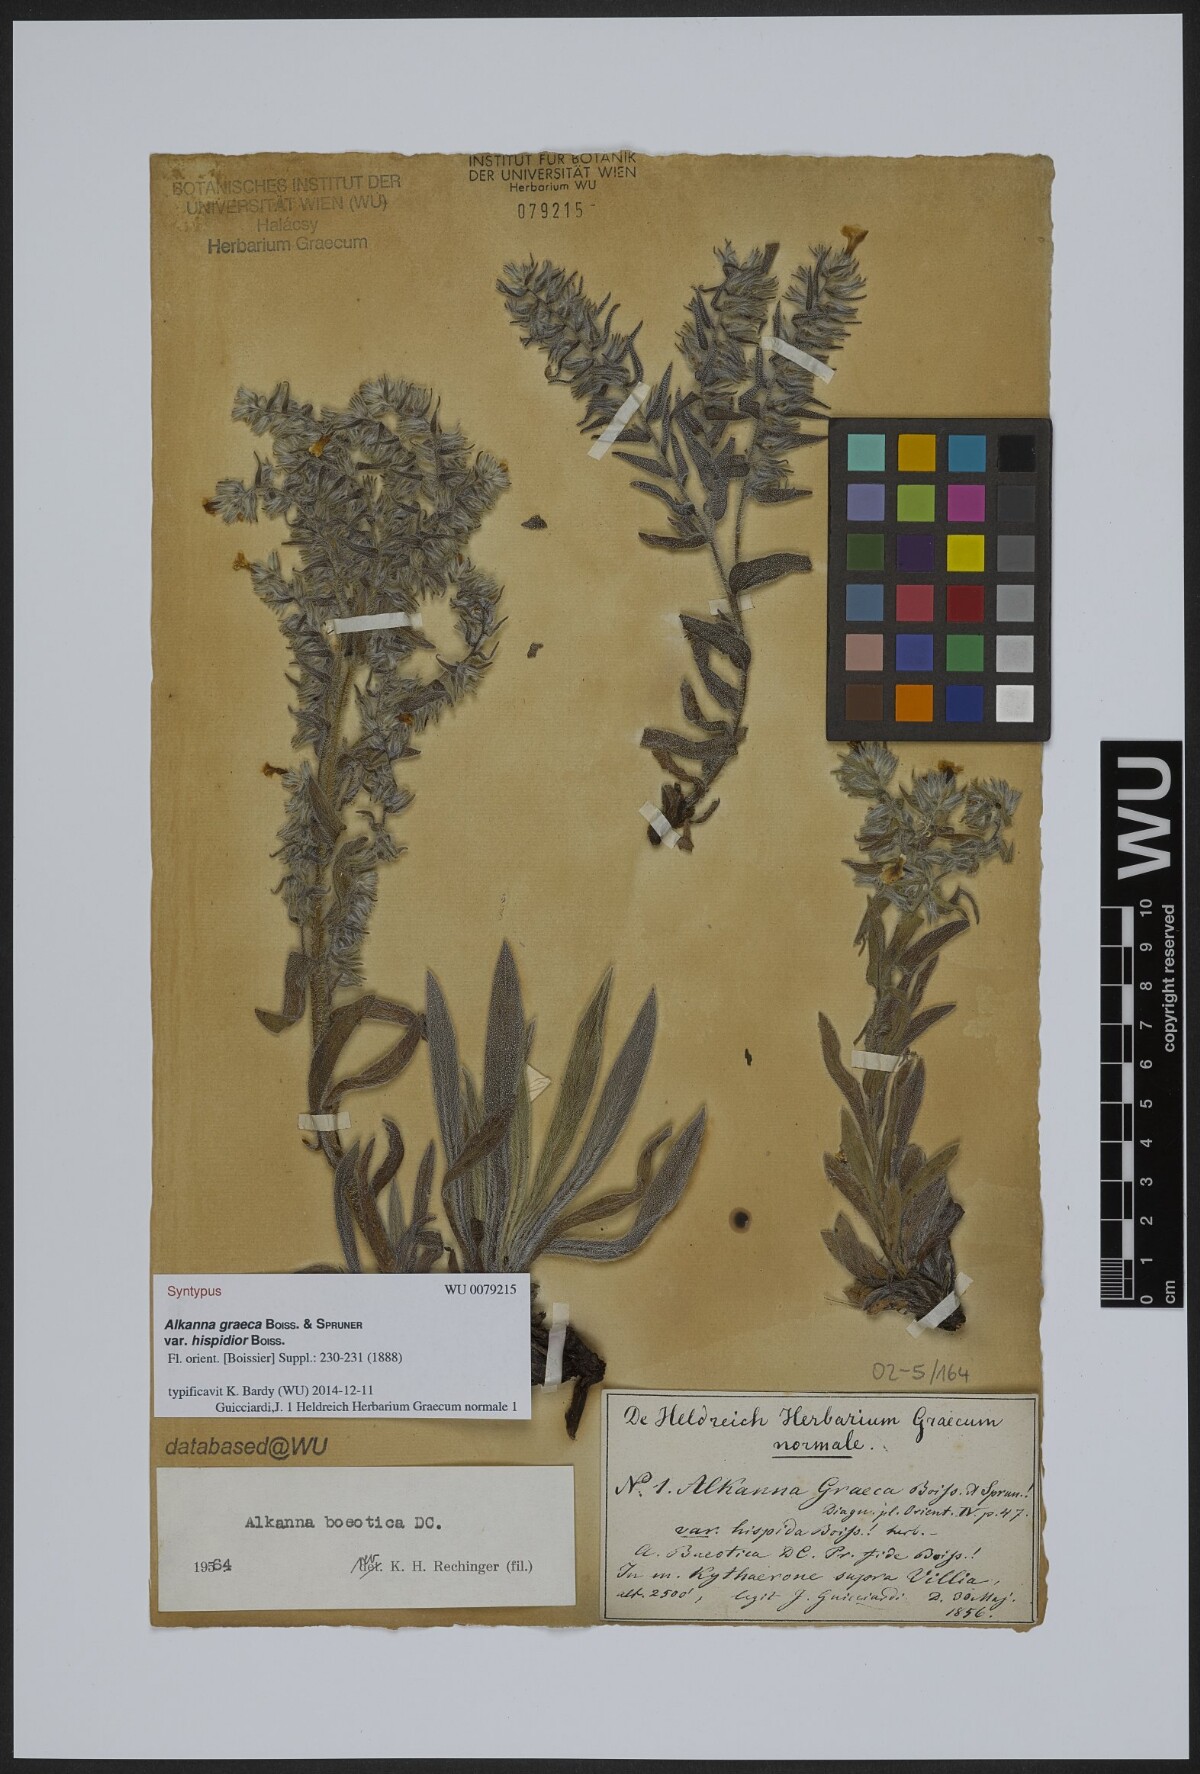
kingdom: Plantae
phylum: Tracheophyta
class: Magnoliopsida
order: Boraginales
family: Boraginaceae
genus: Alkanna
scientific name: Alkanna graeca
